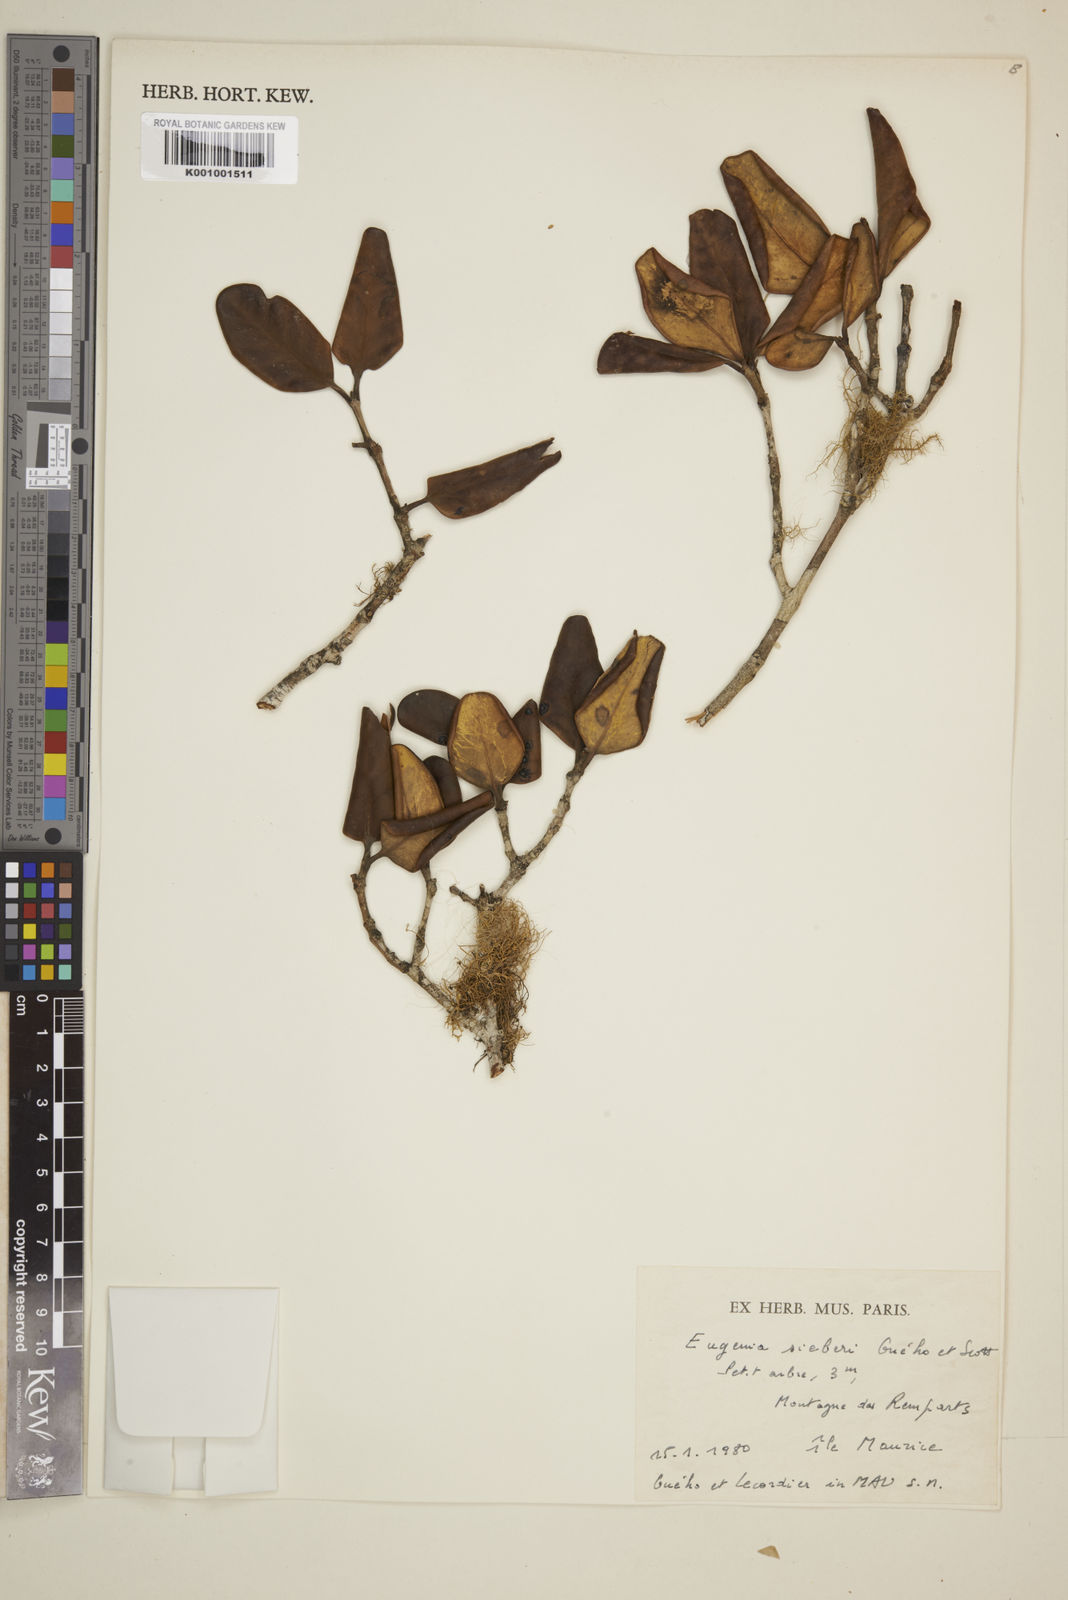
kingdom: Plantae
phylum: Tracheophyta
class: Magnoliopsida
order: Myrtales
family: Myrtaceae
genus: Eugenia
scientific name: Eugenia
